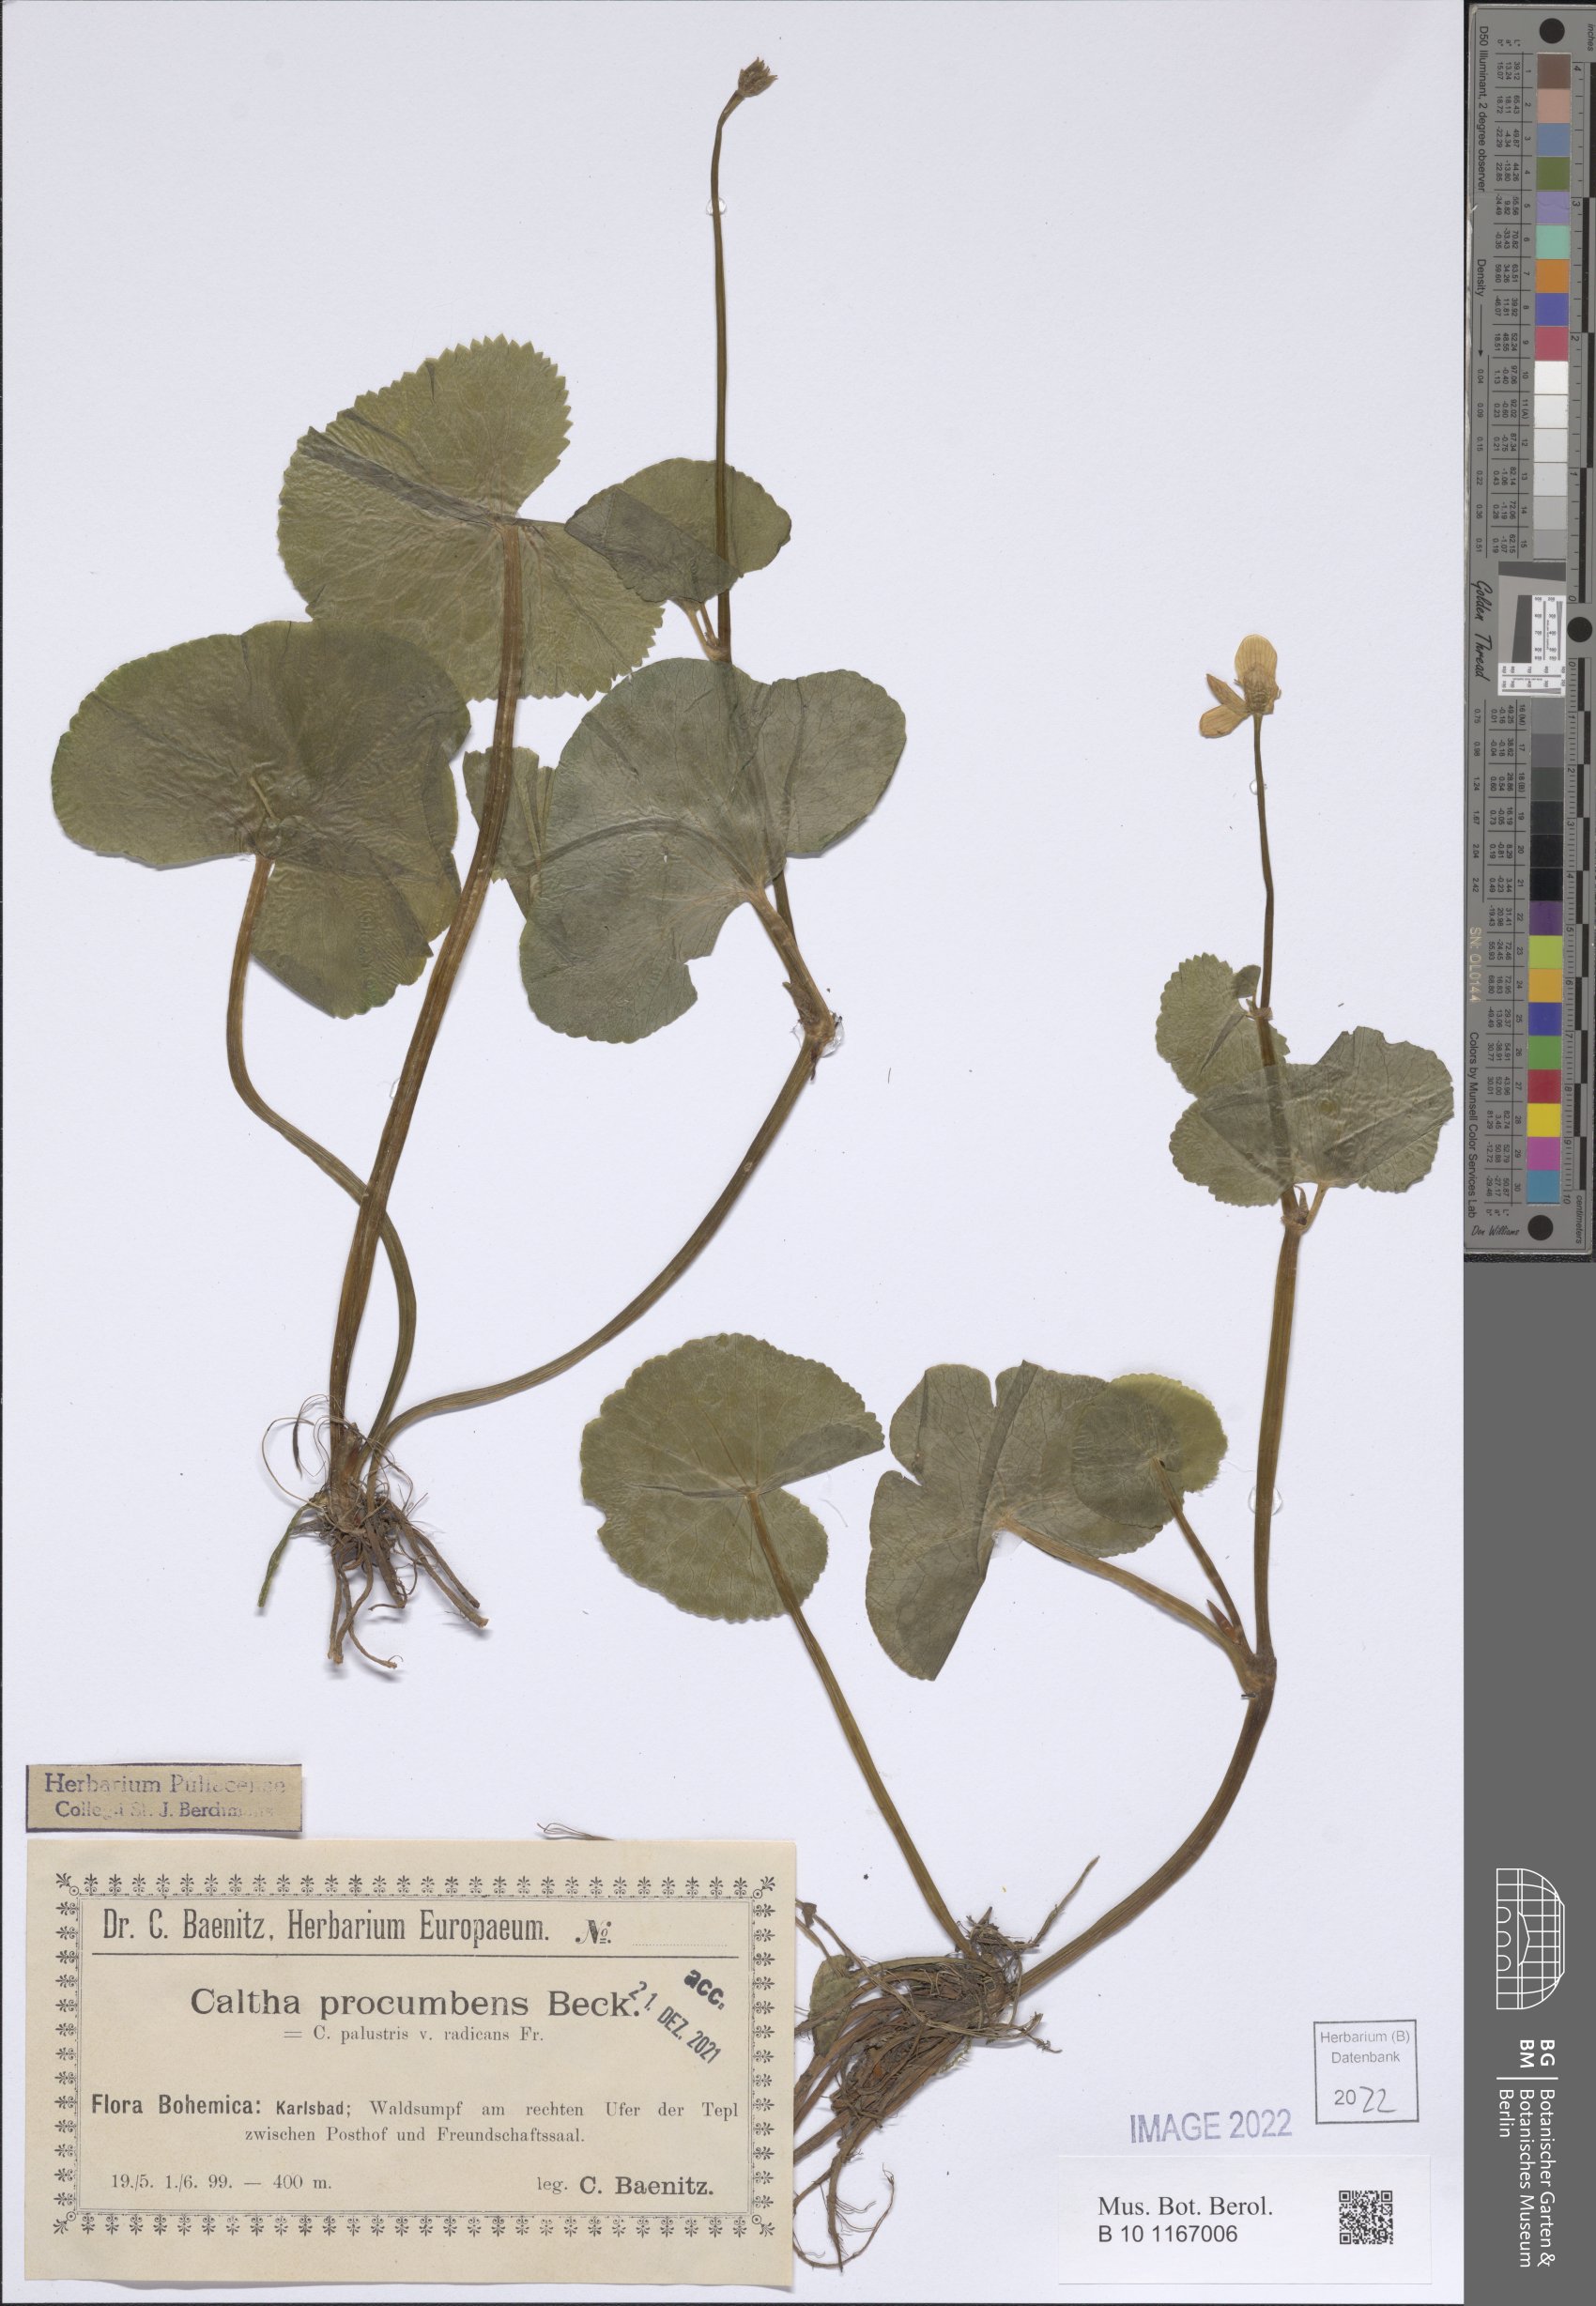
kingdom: Plantae
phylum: Tracheophyta
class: Magnoliopsida
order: Ranunculales
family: Ranunculaceae
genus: Caltha
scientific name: Caltha palustris
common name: Marsh marigold
